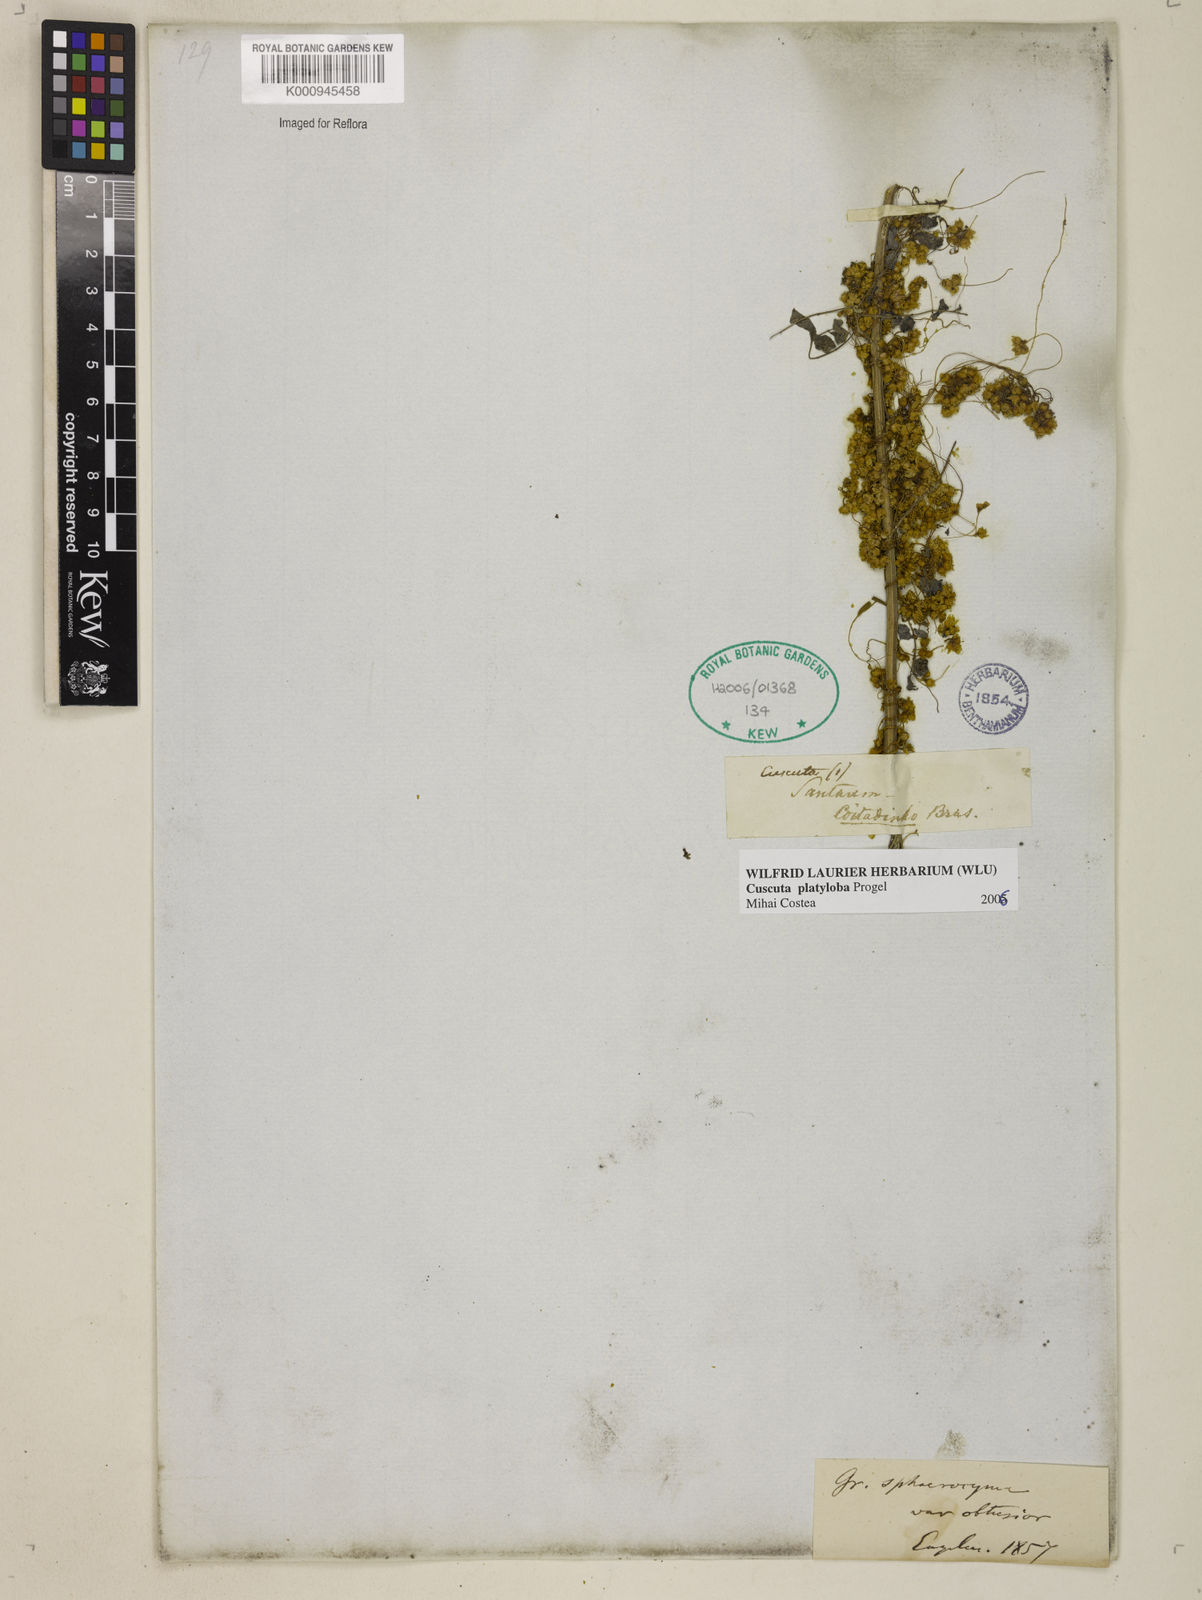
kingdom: Plantae
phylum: Tracheophyta
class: Magnoliopsida
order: Solanales
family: Convolvulaceae
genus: Cuscuta
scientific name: Cuscuta platyloba
